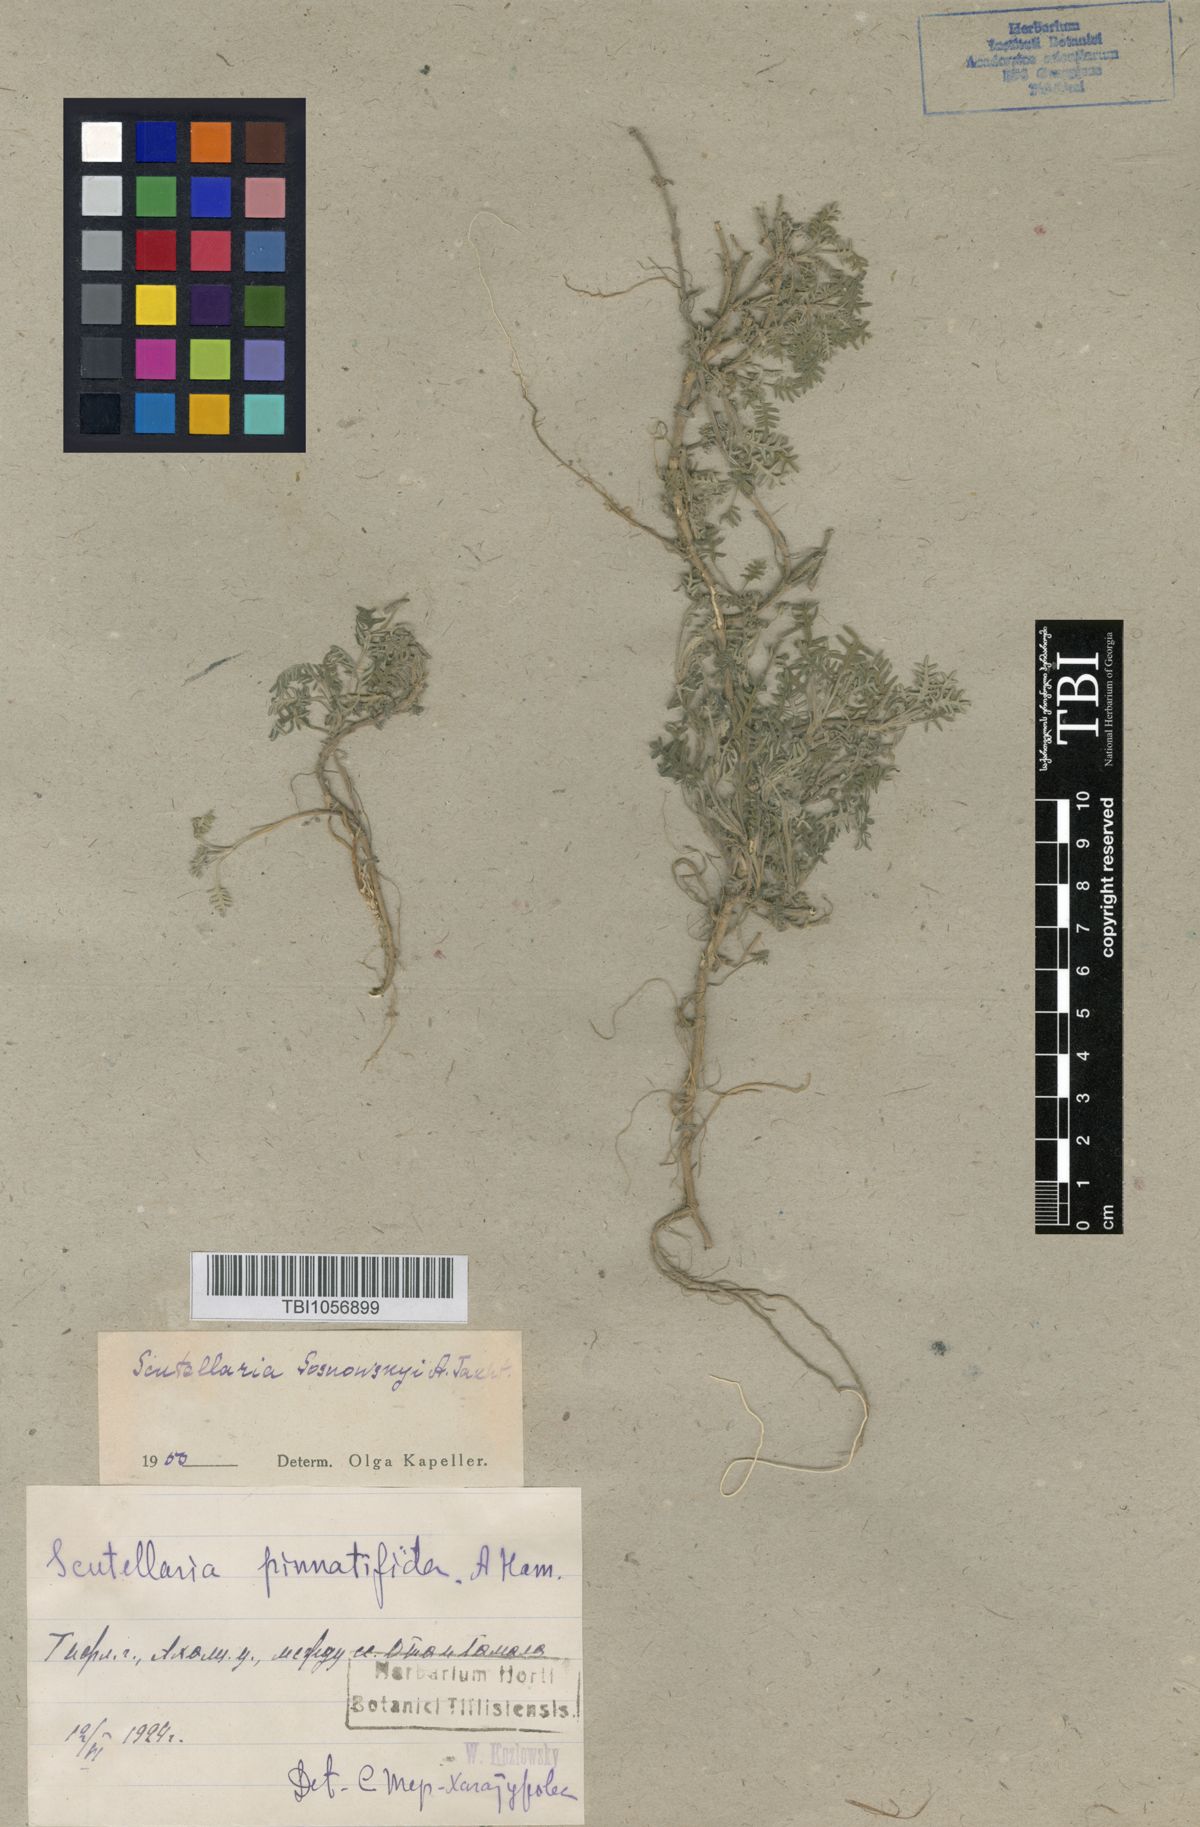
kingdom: Plantae
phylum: Tracheophyta
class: Magnoliopsida
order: Lamiales
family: Lamiaceae
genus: Scutellaria
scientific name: Scutellaria sosnowskyi
